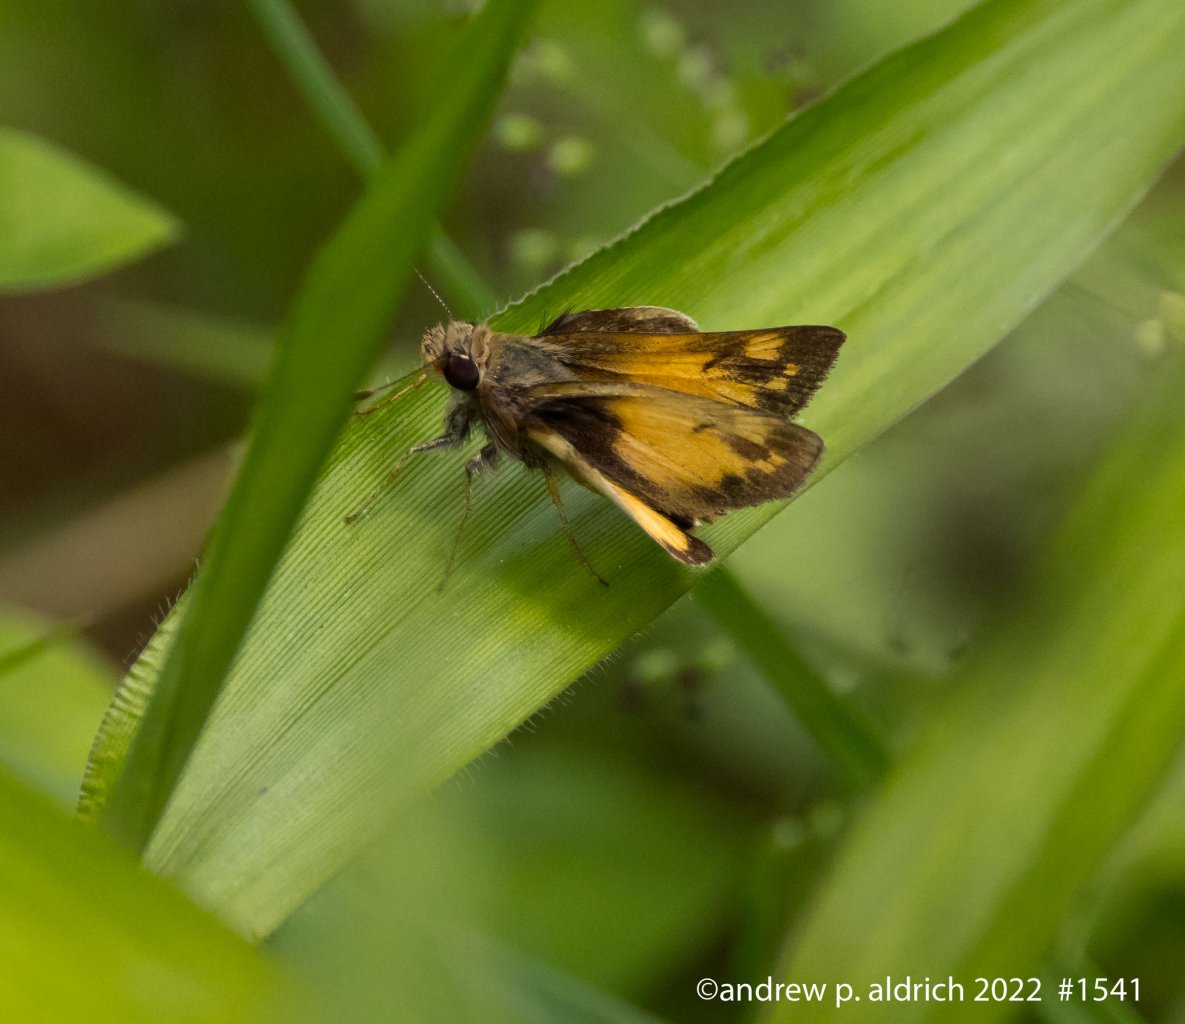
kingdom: Animalia
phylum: Arthropoda
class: Insecta
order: Lepidoptera
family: Hesperiidae
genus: Lon
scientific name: Lon zabulon
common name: Zabulon Skipper
